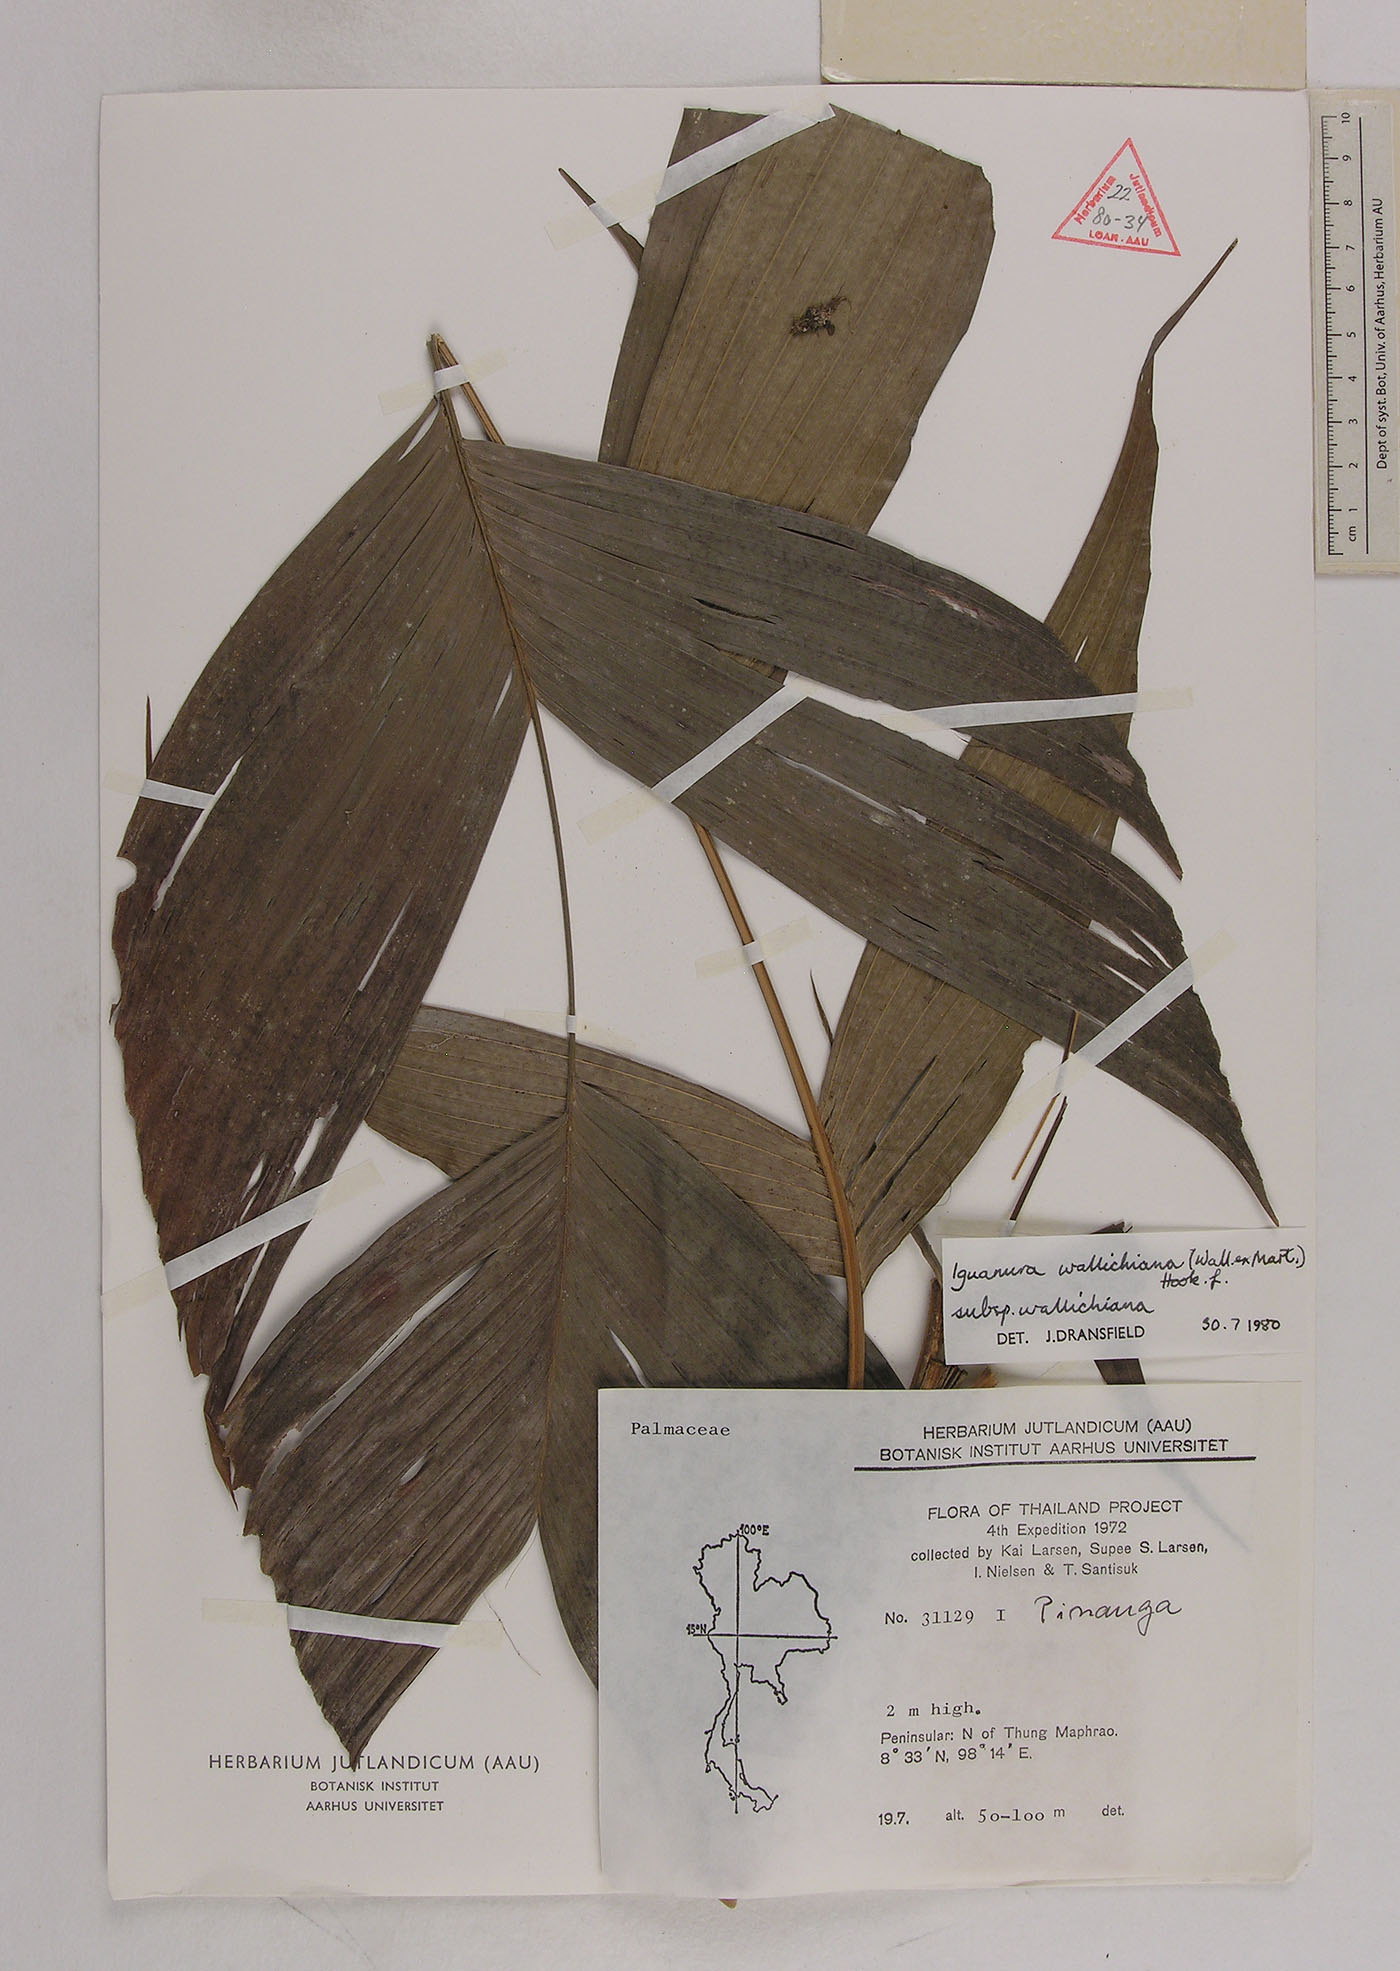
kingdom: Plantae
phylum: Tracheophyta
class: Liliopsida
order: Arecales
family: Arecaceae
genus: Iguanura
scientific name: Iguanura wallichiana
